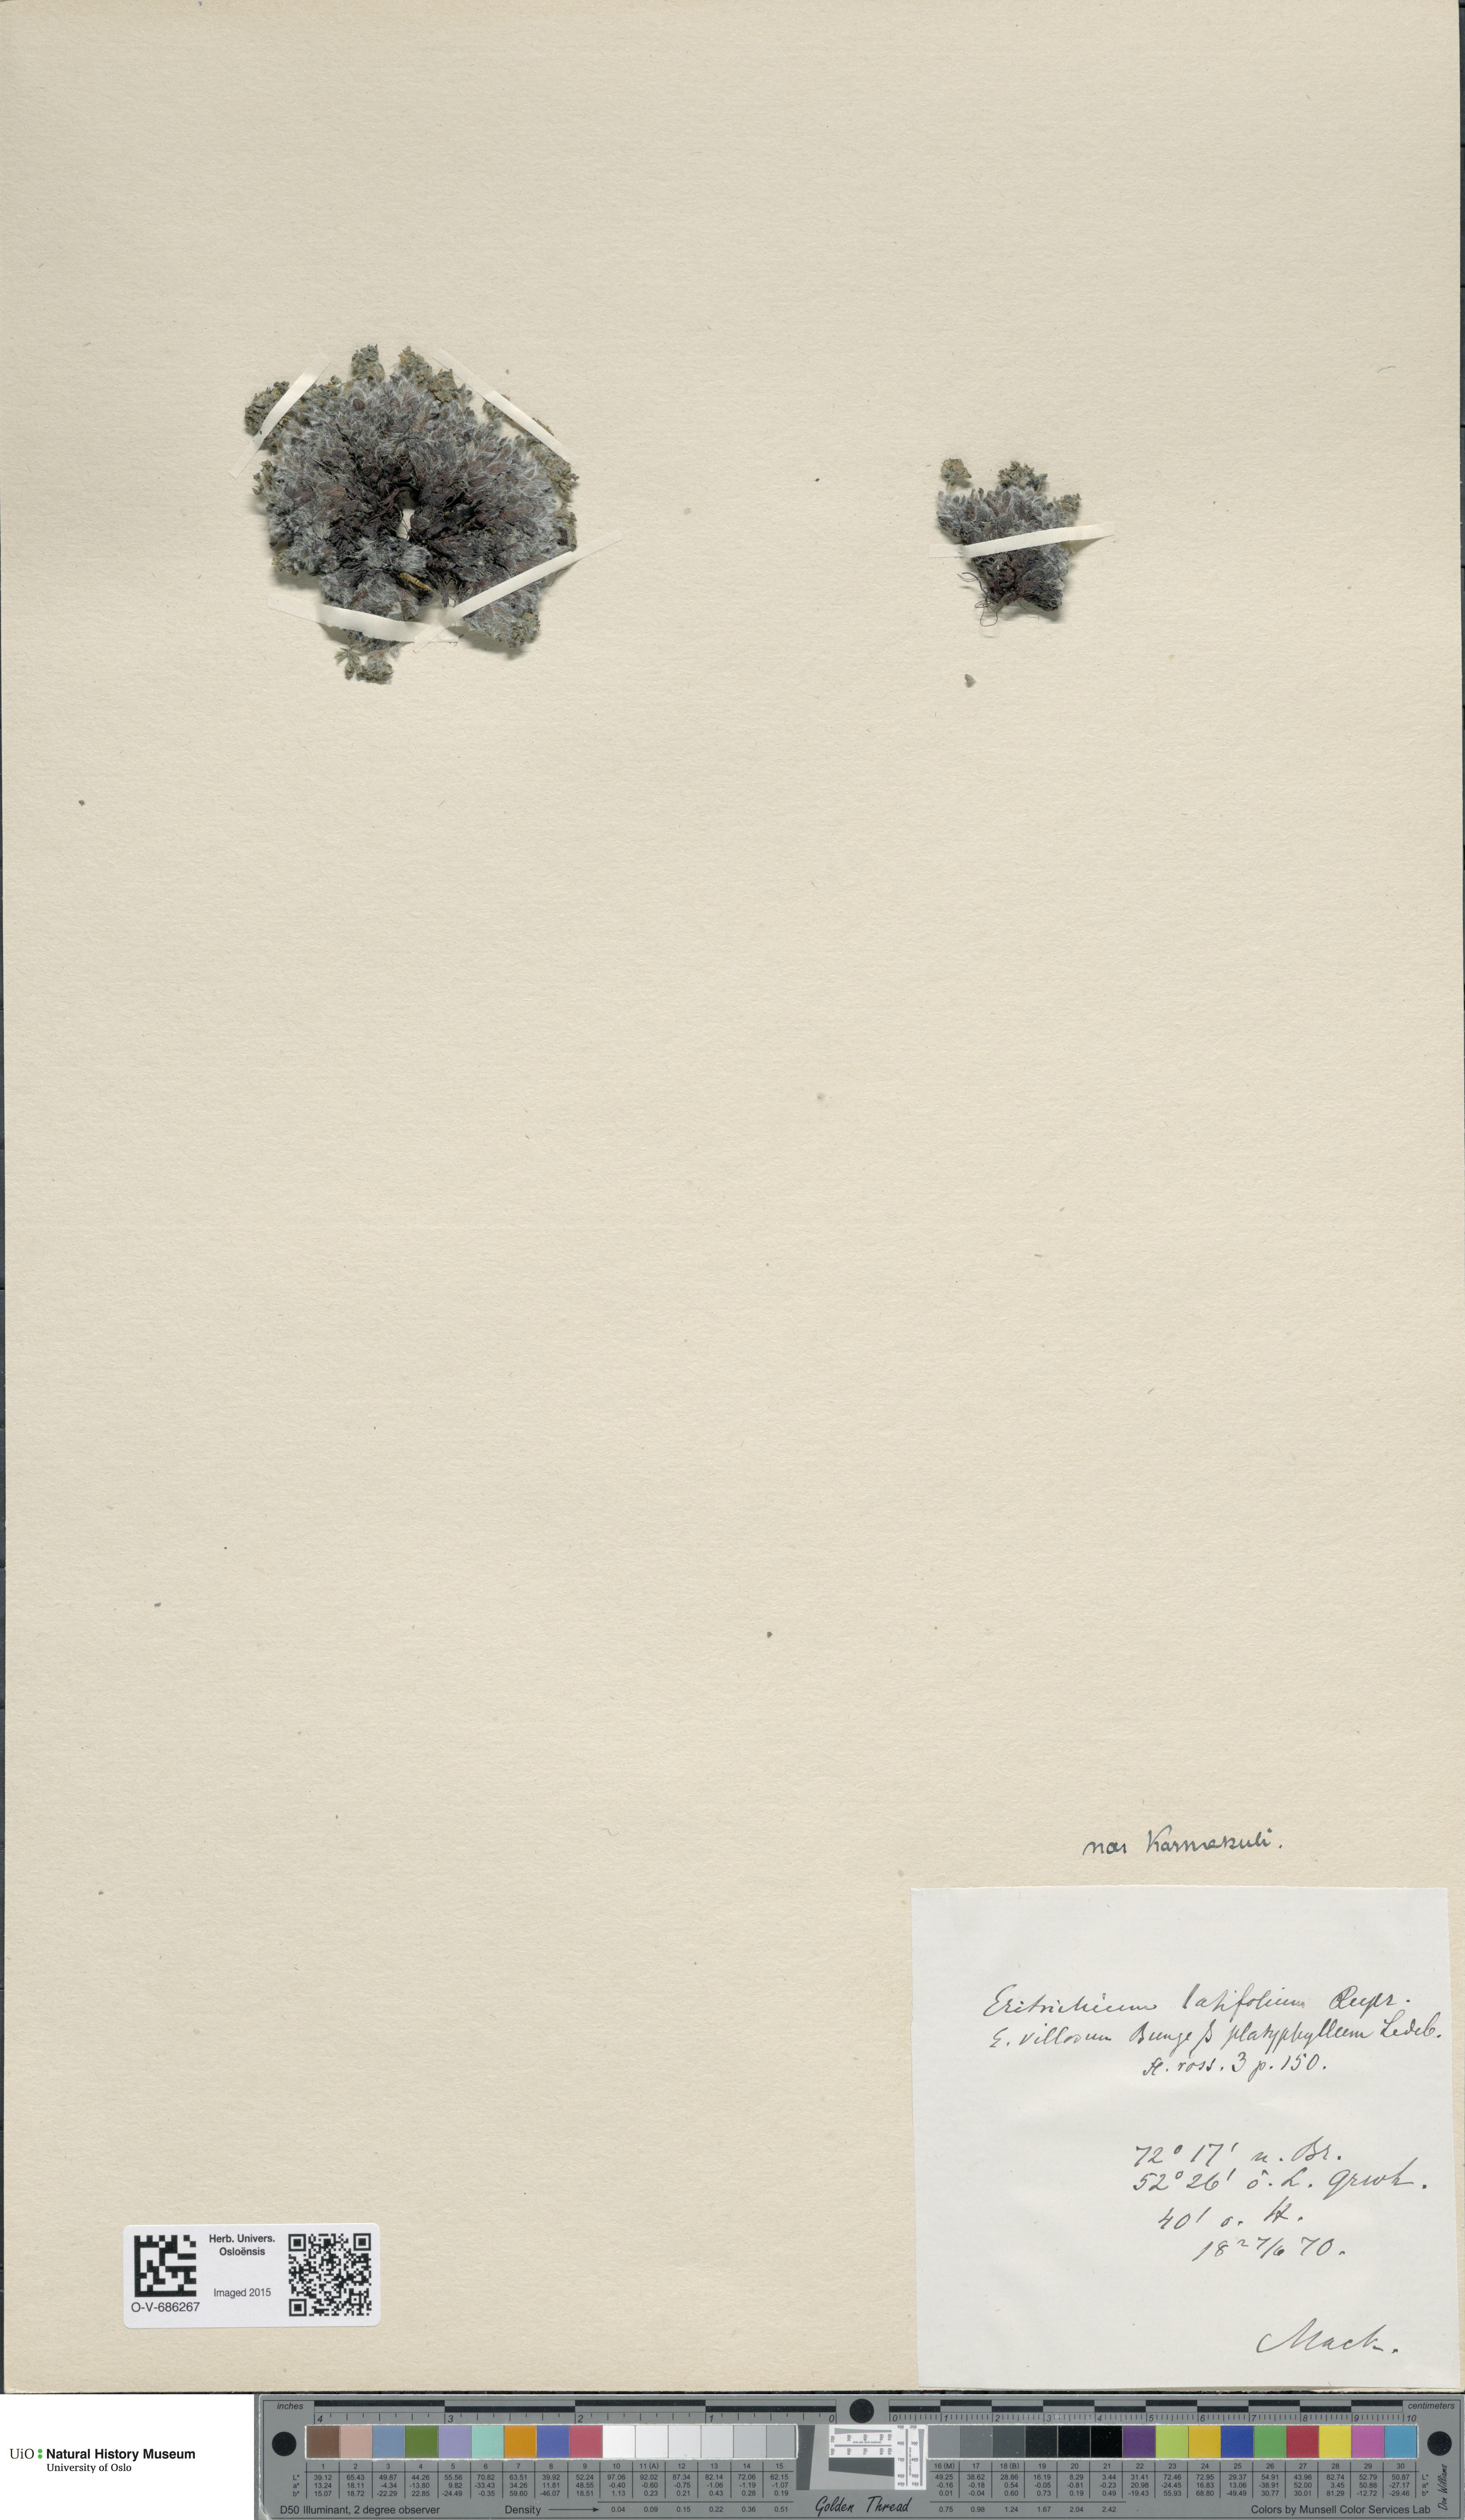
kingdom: Plantae
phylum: Tracheophyta
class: Magnoliopsida
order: Boraginales
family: Boraginaceae
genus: Eritrichium
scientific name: Eritrichium latifolium
